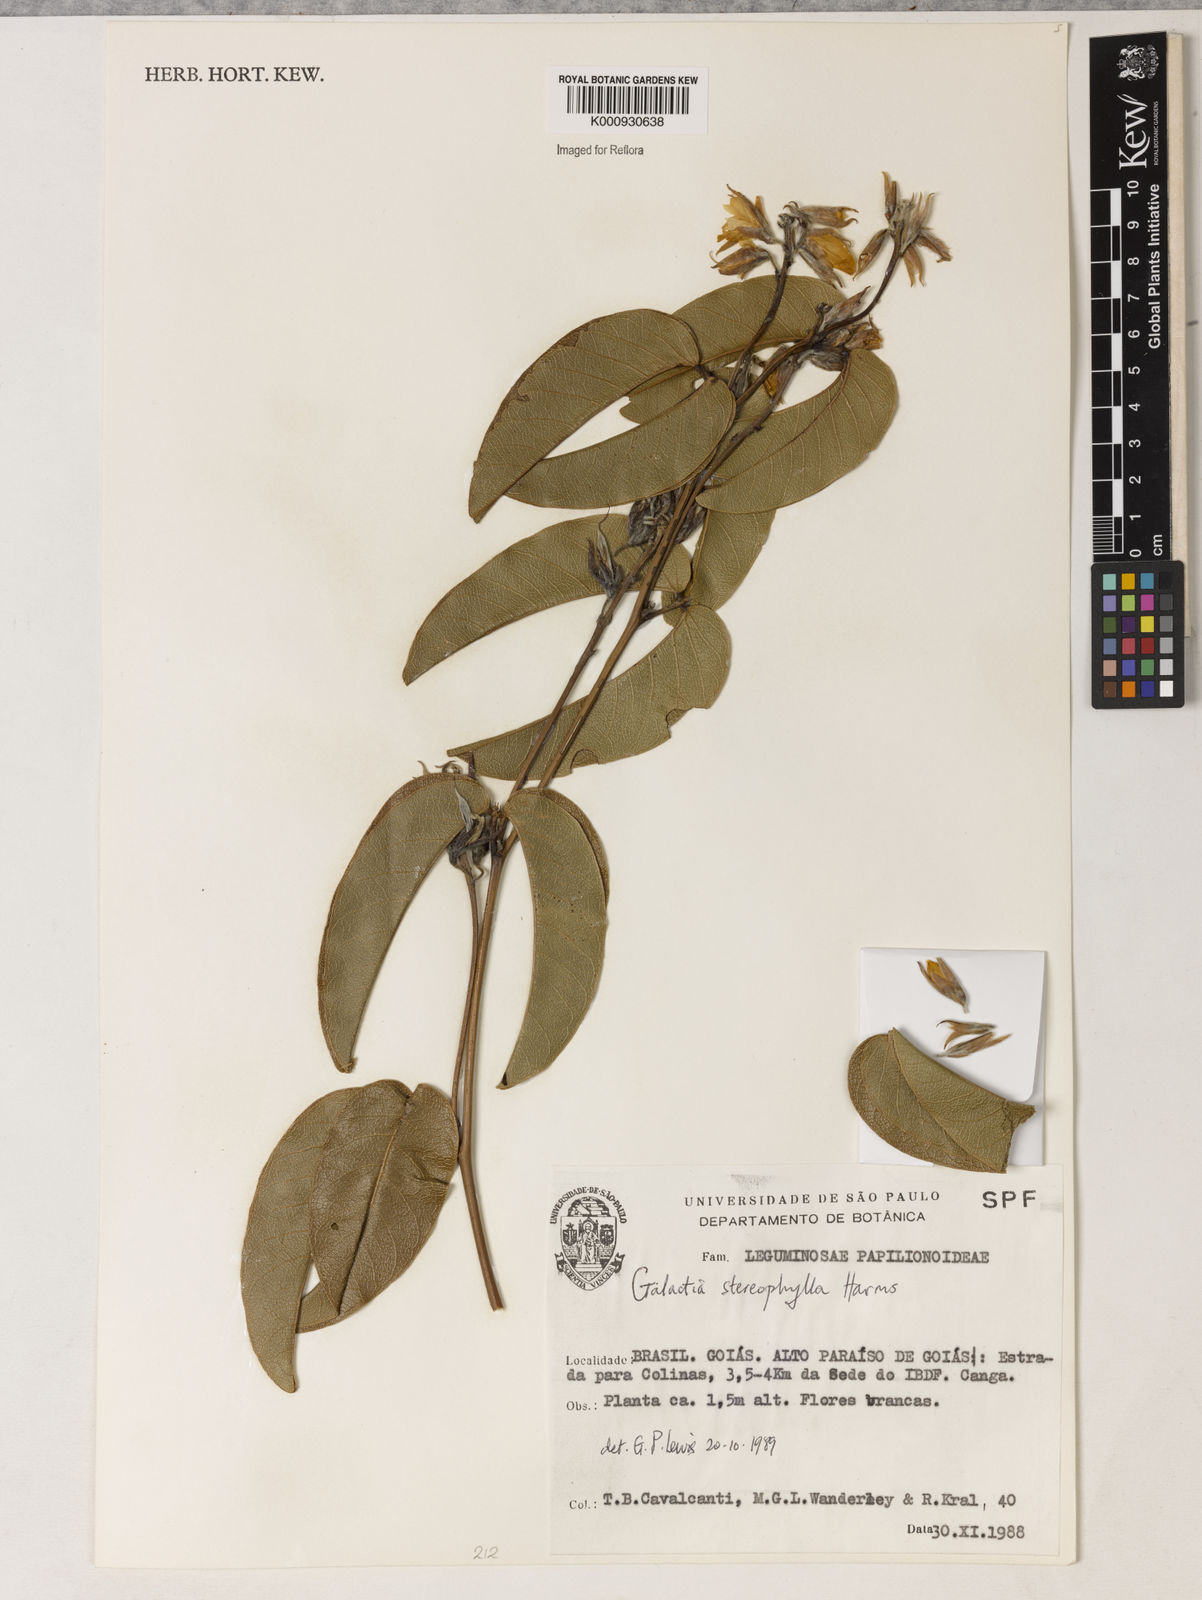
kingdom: Plantae
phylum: Tracheophyta
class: Magnoliopsida
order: Fabales
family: Fabaceae
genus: Betencourtia
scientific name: Betencourtia stereophylla
